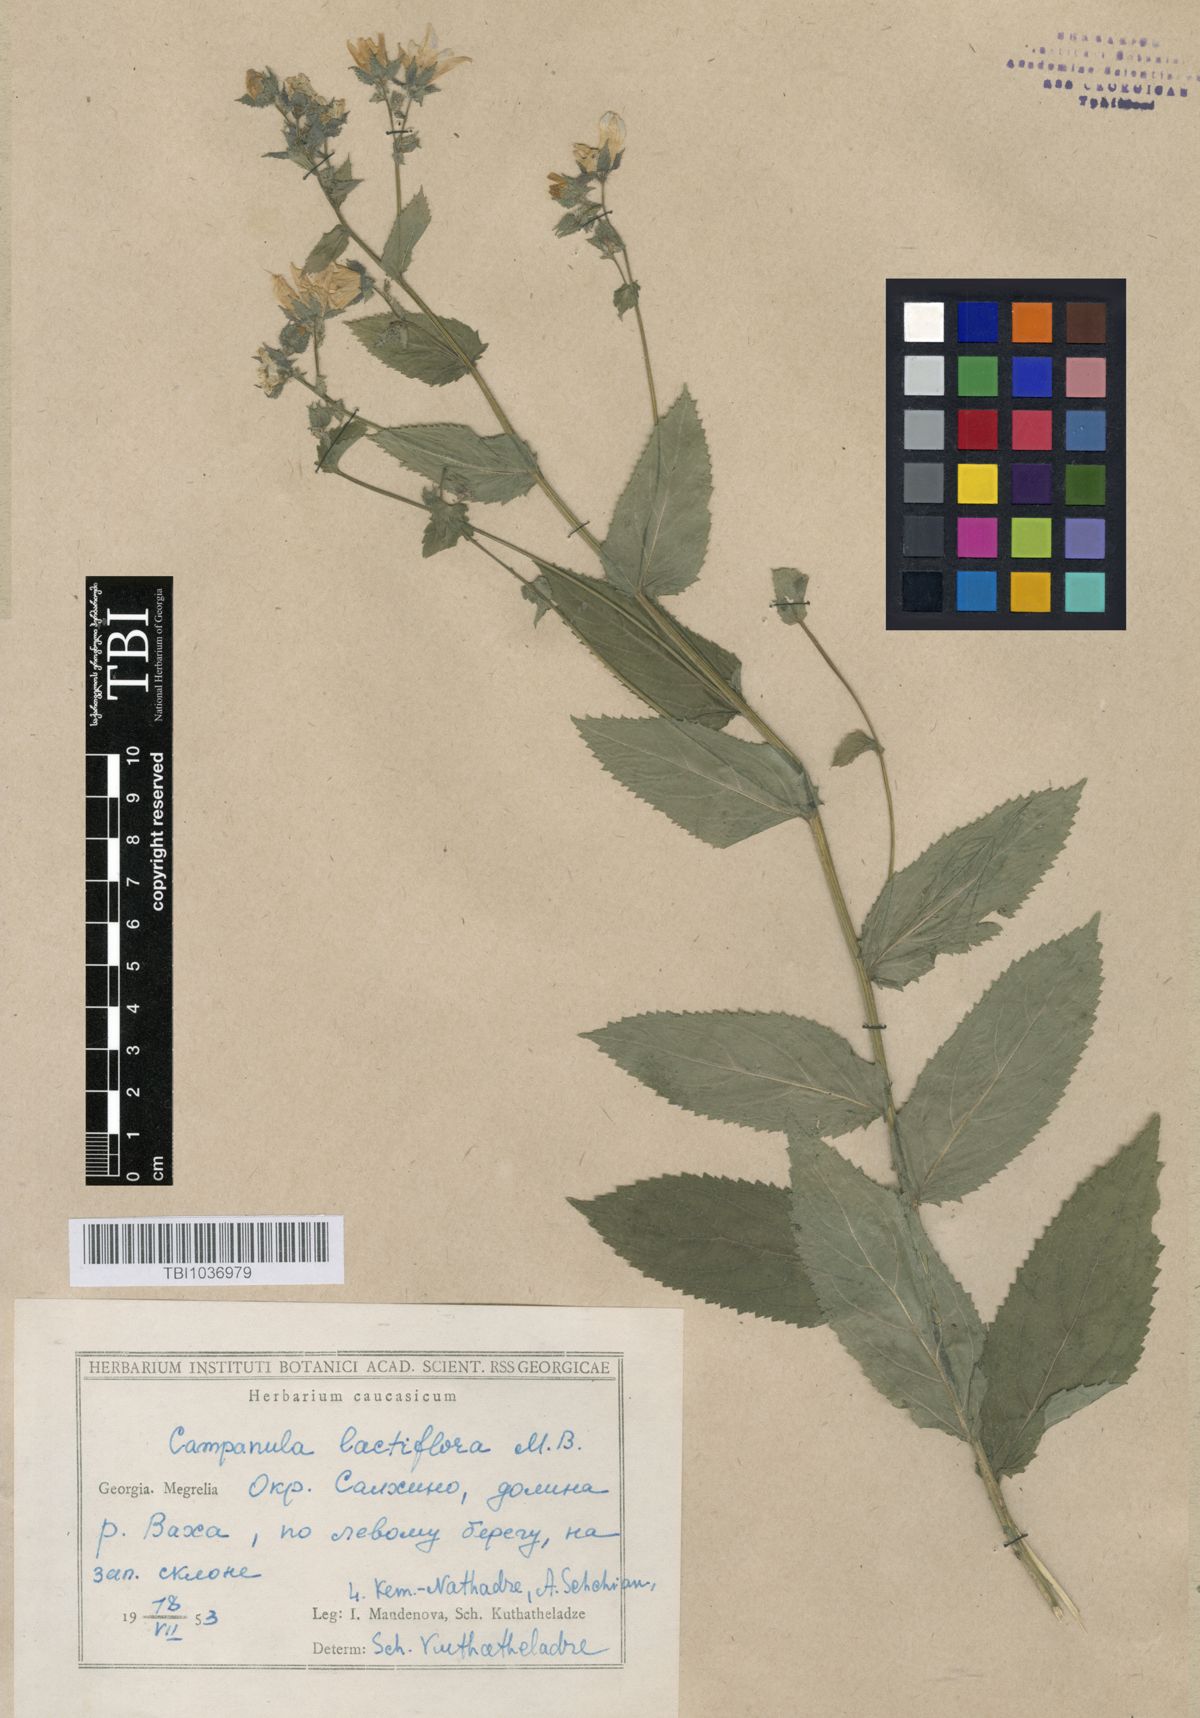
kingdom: Plantae
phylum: Tracheophyta
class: Magnoliopsida
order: Asterales
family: Campanulaceae
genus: Campanula
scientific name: Campanula lactiflora
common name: Milky bellflower
